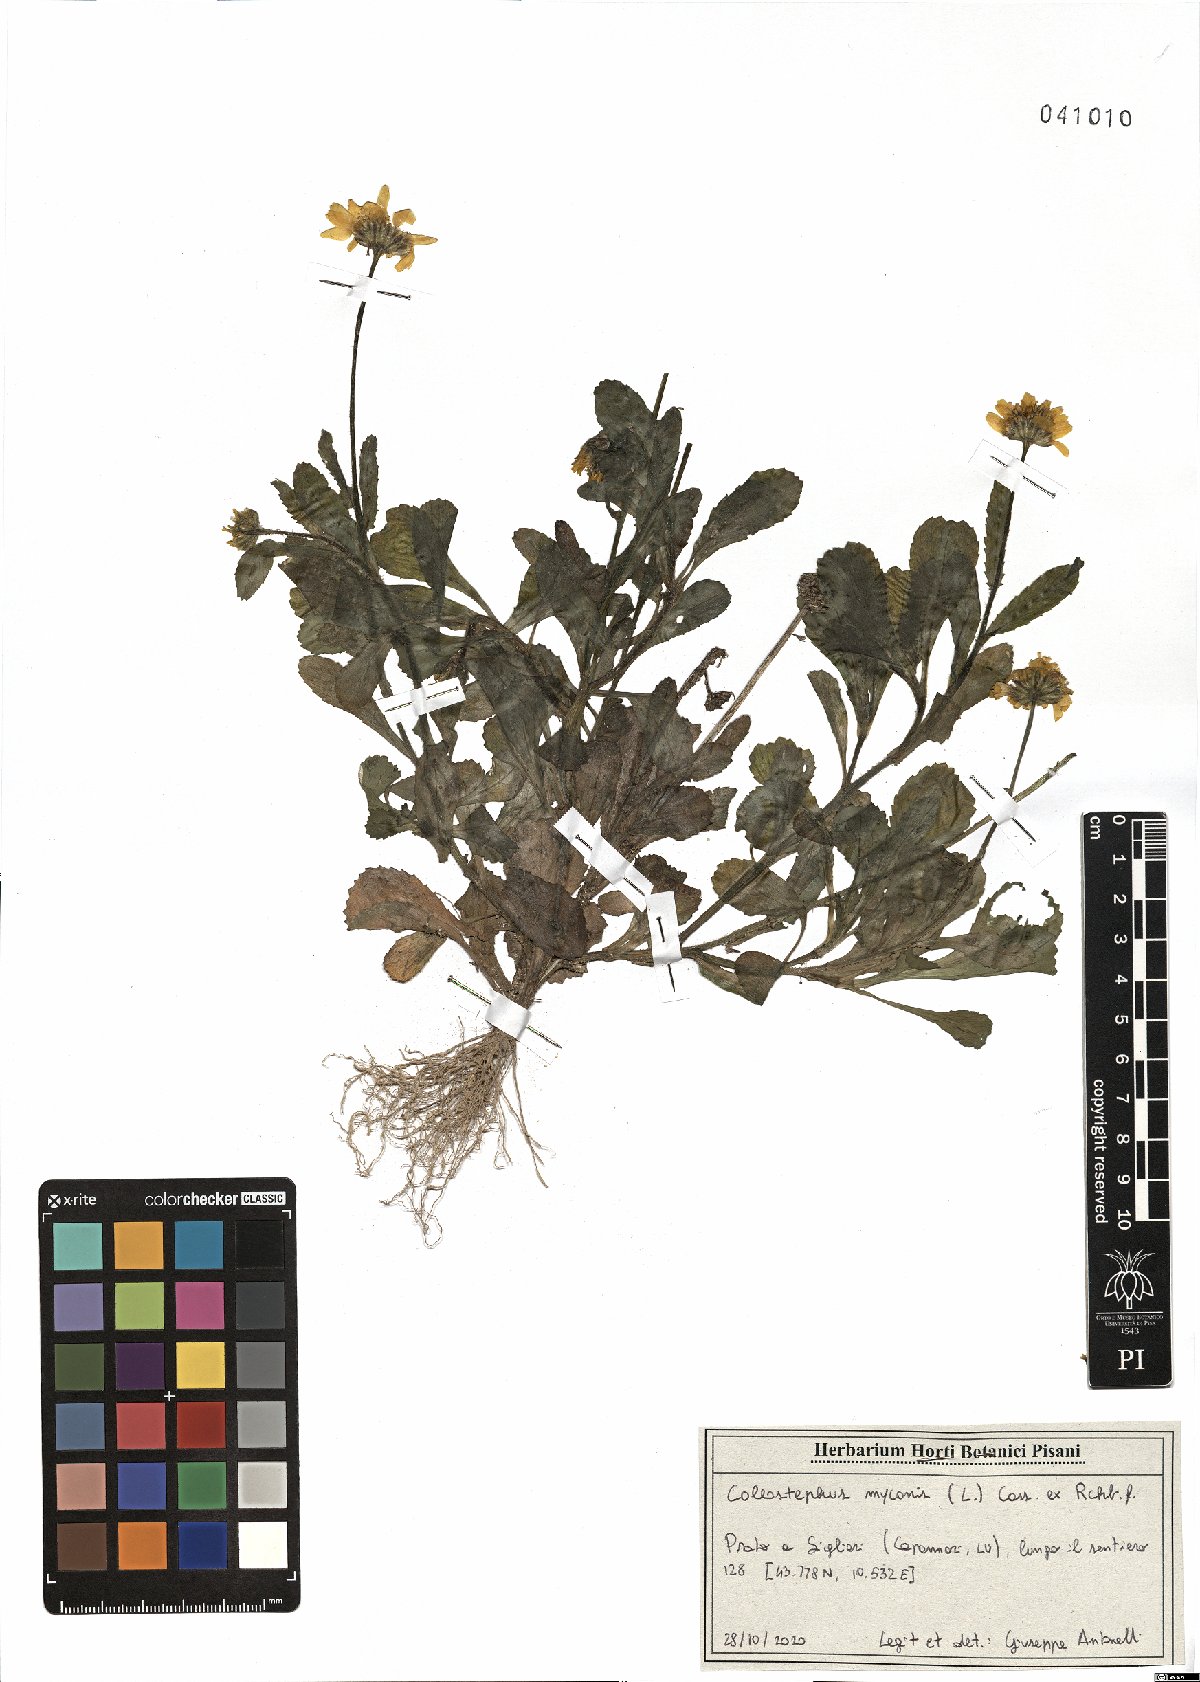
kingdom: Plantae
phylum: Tracheophyta
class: Magnoliopsida
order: Asterales
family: Asteraceae
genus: Coleostephus
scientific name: Coleostephus myconis
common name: Mediterranean marigold
